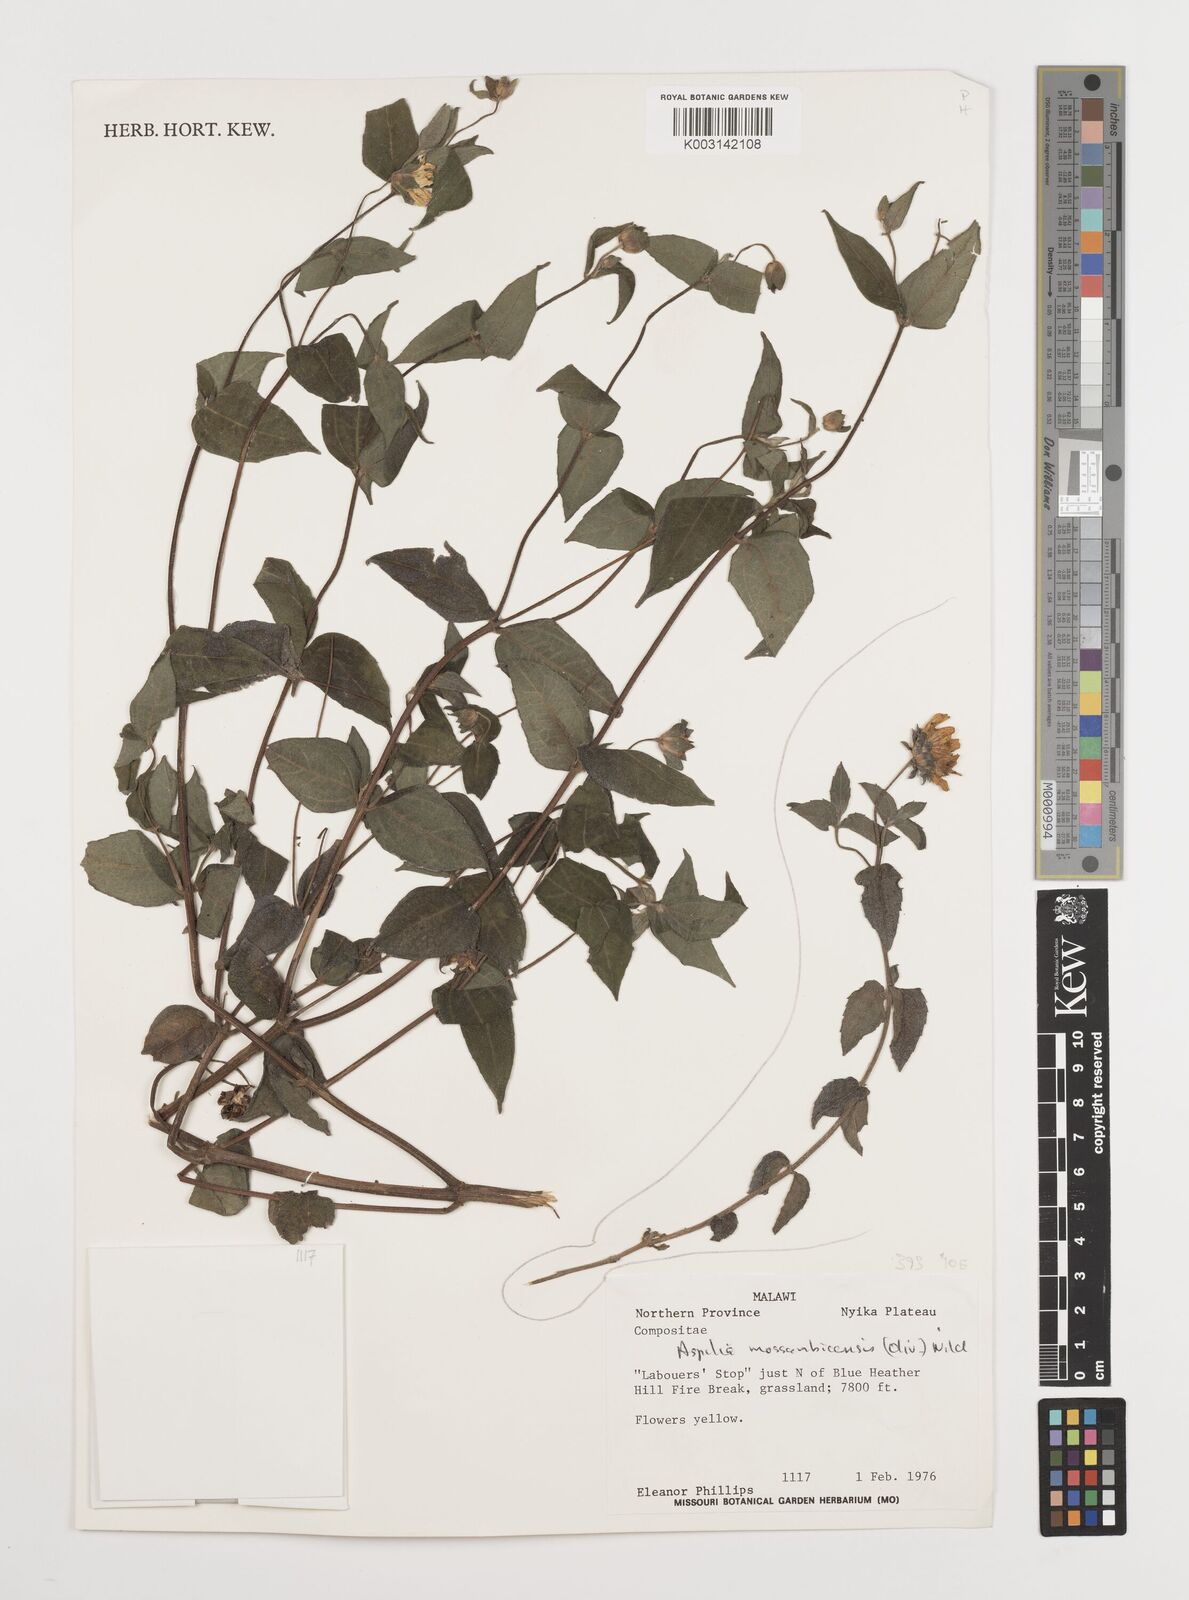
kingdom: Plantae
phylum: Tracheophyta
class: Magnoliopsida
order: Asterales
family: Asteraceae
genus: Aspilia
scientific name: Aspilia mossambicensis
